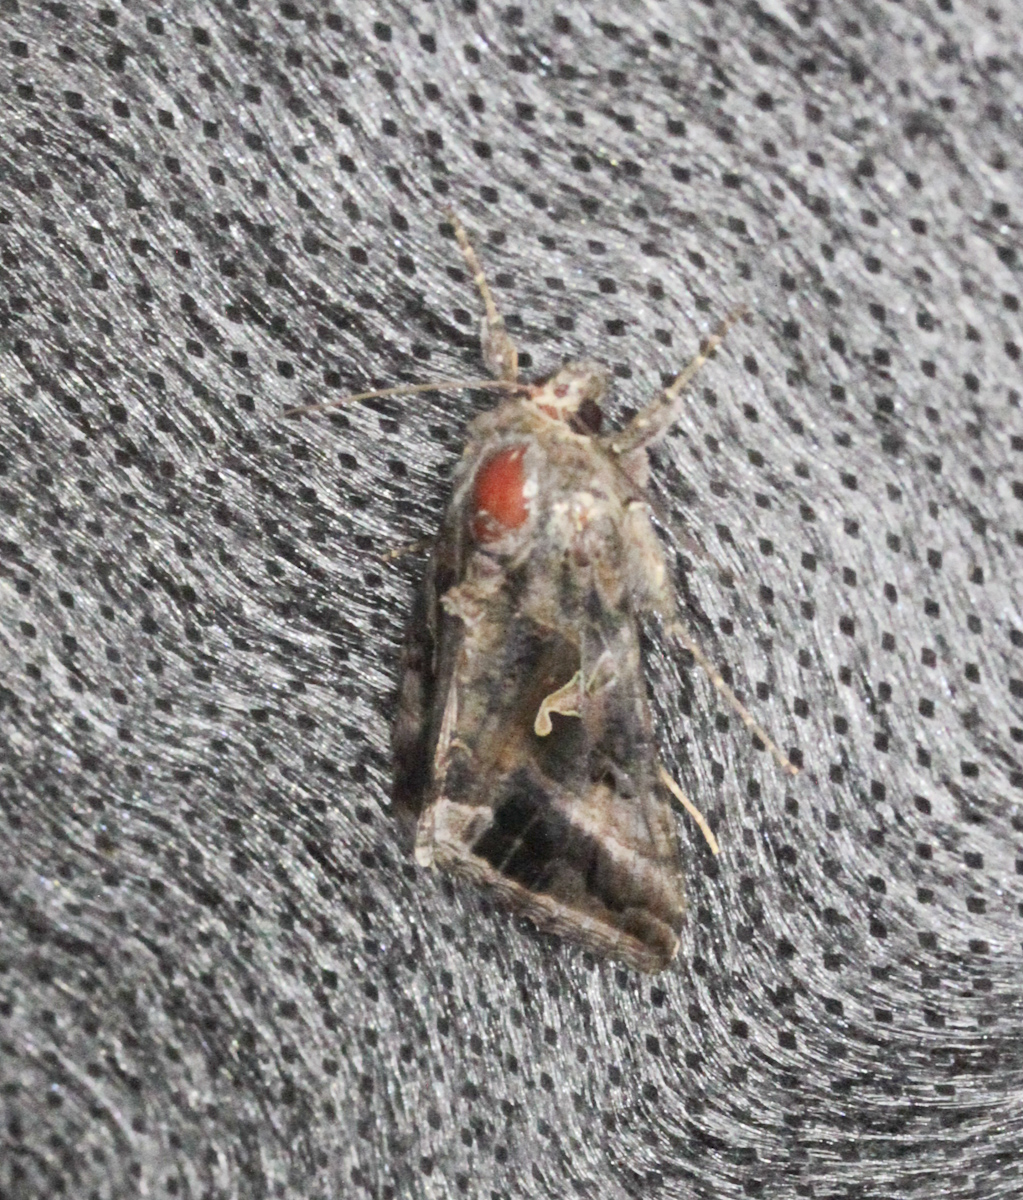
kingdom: Animalia
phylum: Arthropoda
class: Insecta
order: Lepidoptera
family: Noctuidae
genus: Autographa
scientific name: Autographa gamma
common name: Silver y
